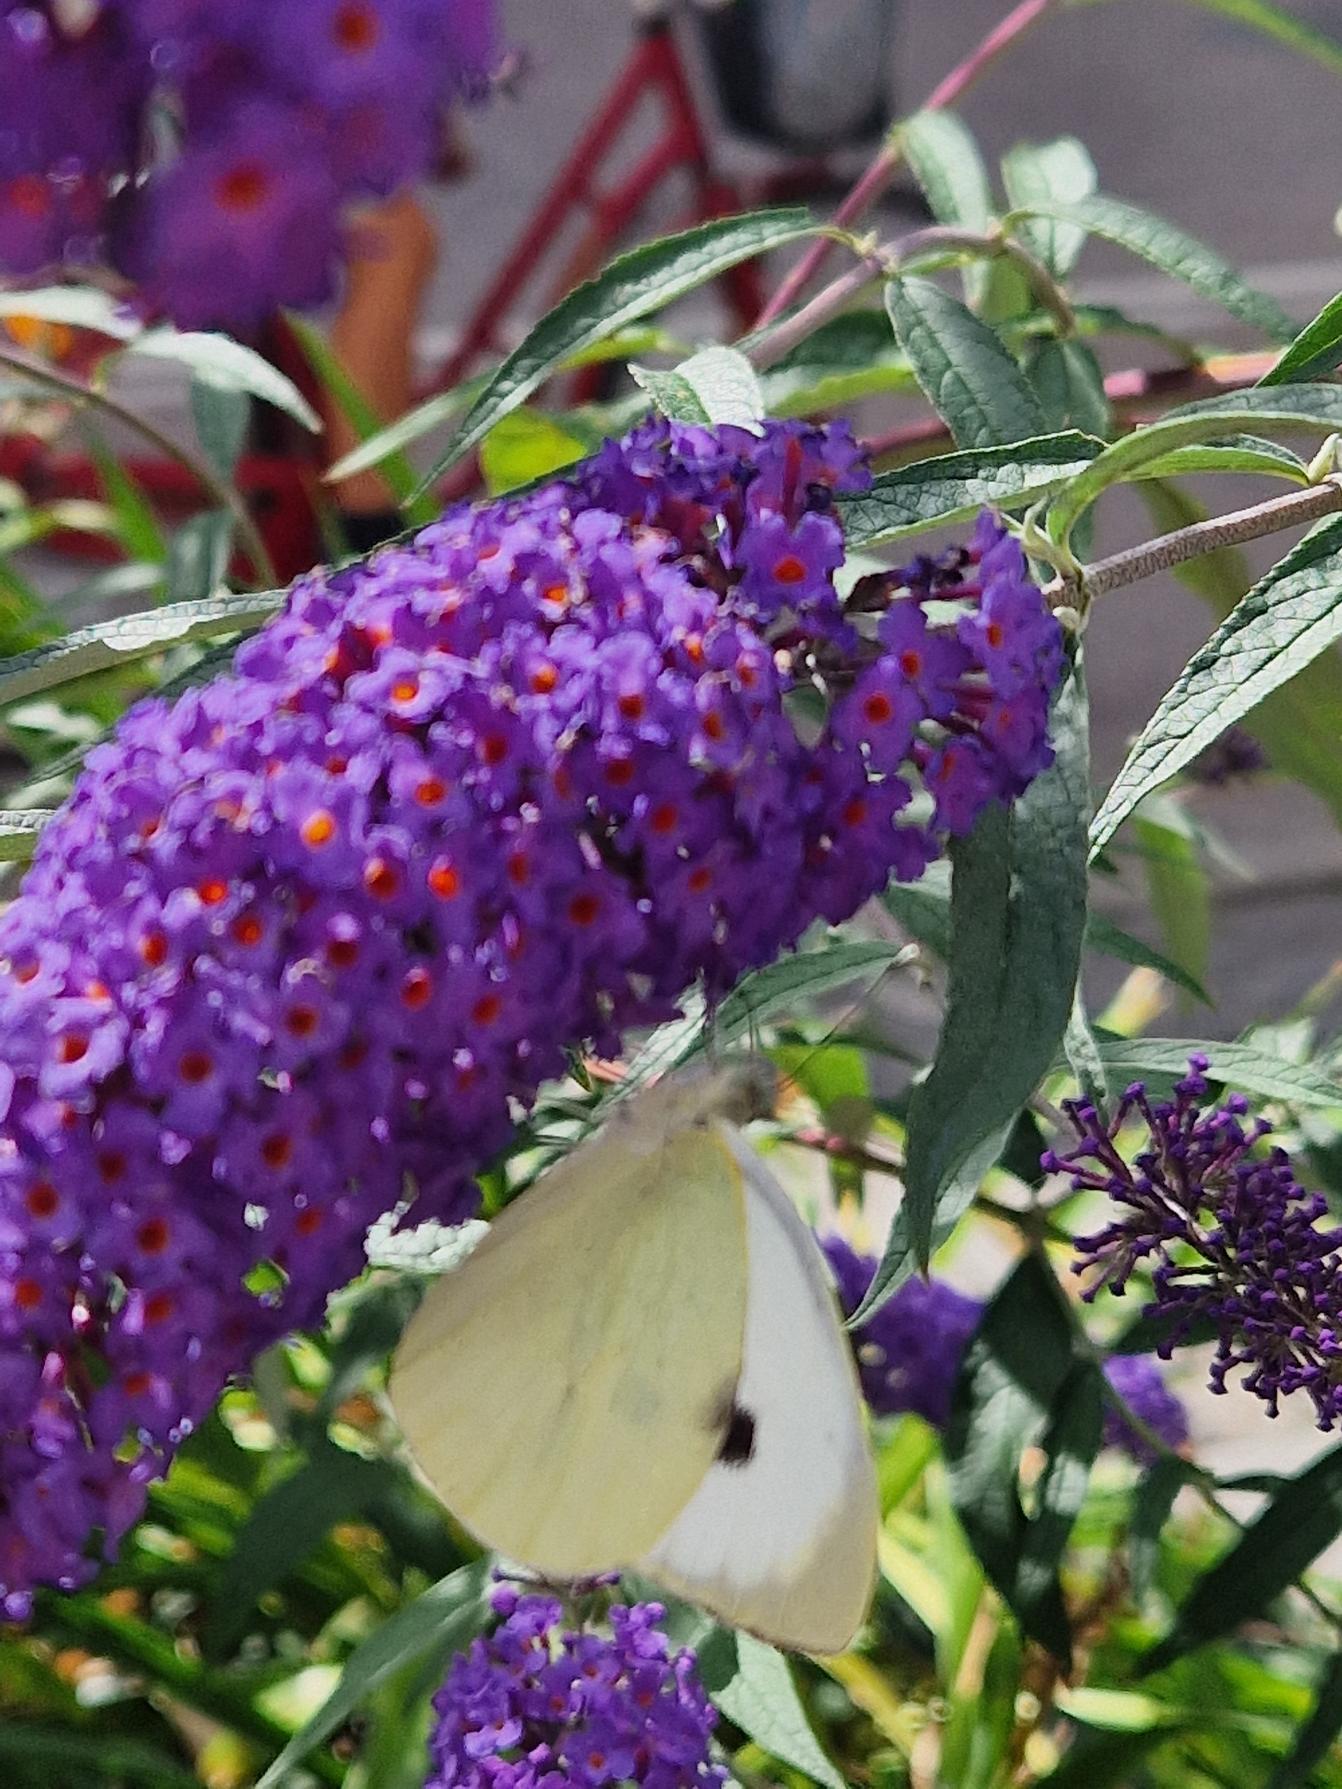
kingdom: Animalia
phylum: Arthropoda
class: Insecta
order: Lepidoptera
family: Pieridae
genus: Pieris
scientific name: Pieris brassicae
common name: Stor kålsommerfugl
